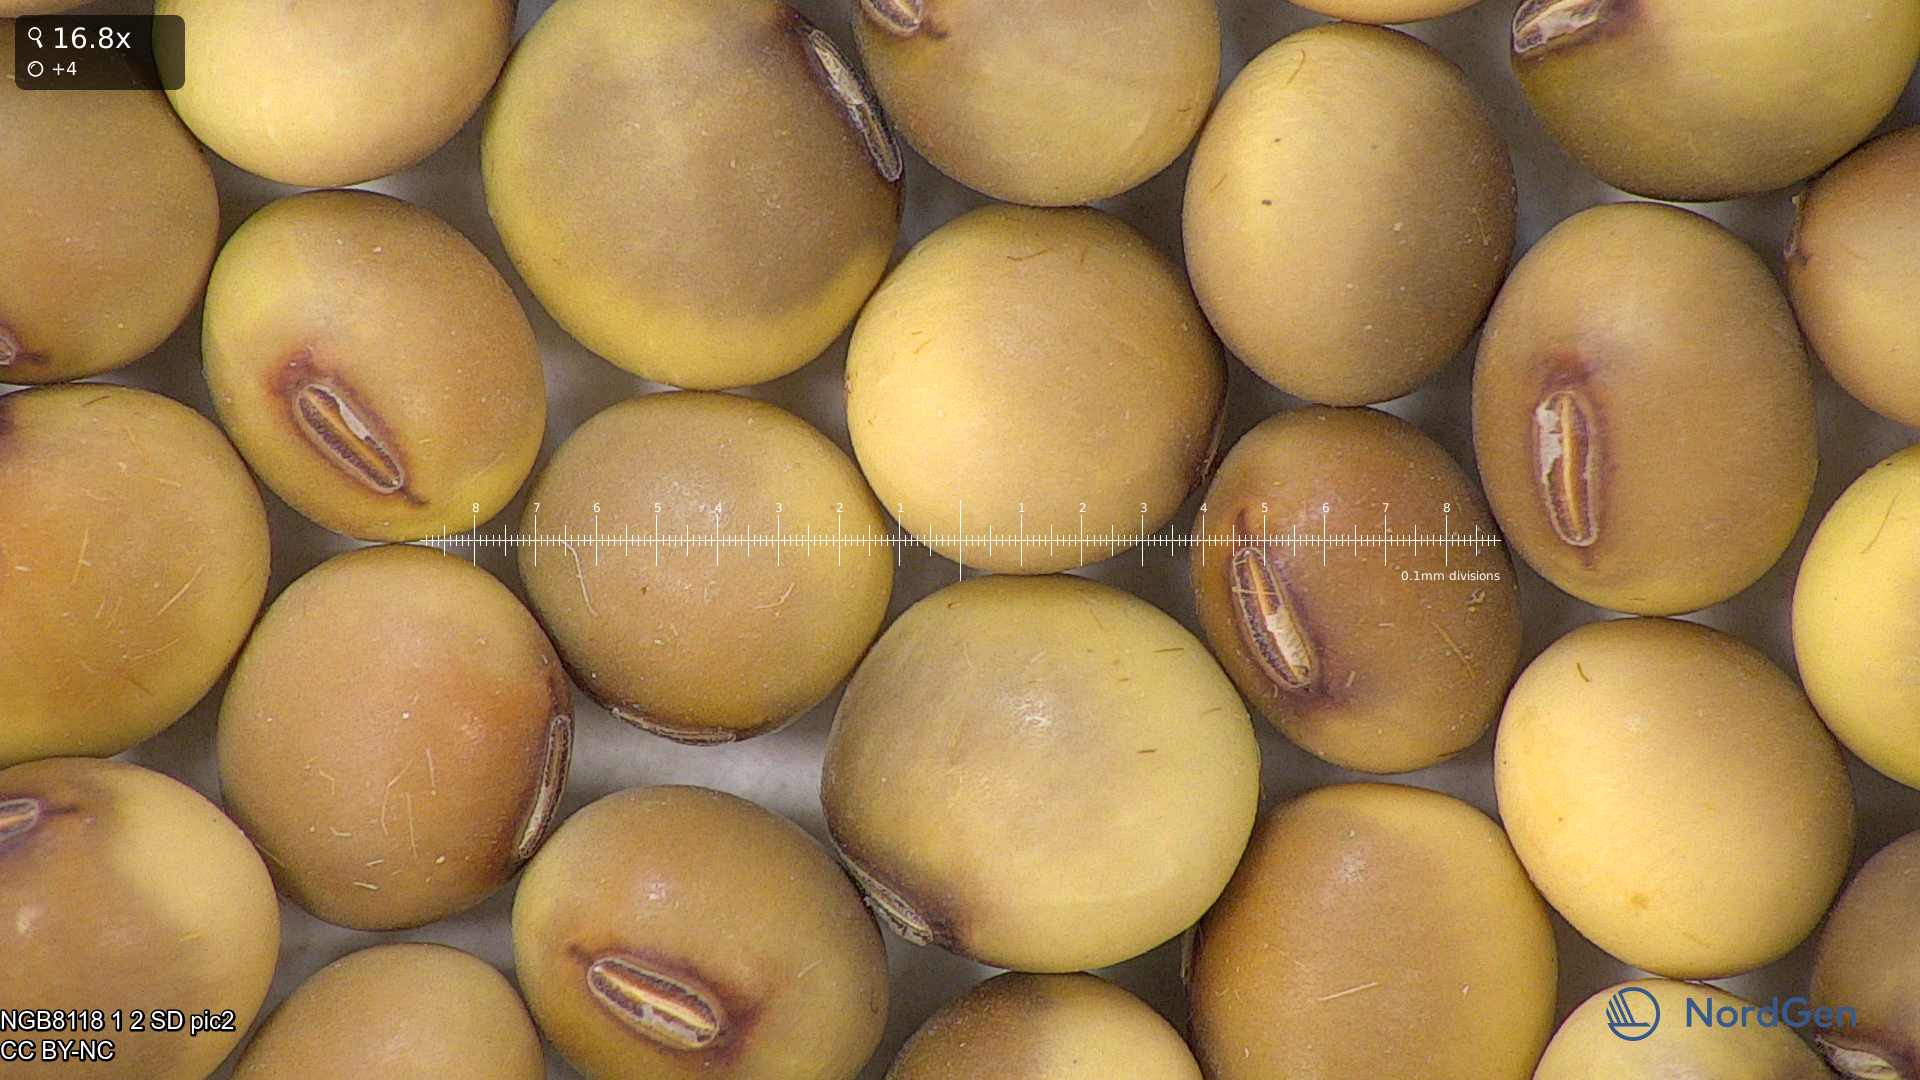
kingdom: Plantae
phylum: Tracheophyta
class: Magnoliopsida
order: Fabales
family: Fabaceae
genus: Glycine
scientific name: Glycine max
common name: Soya-bean
